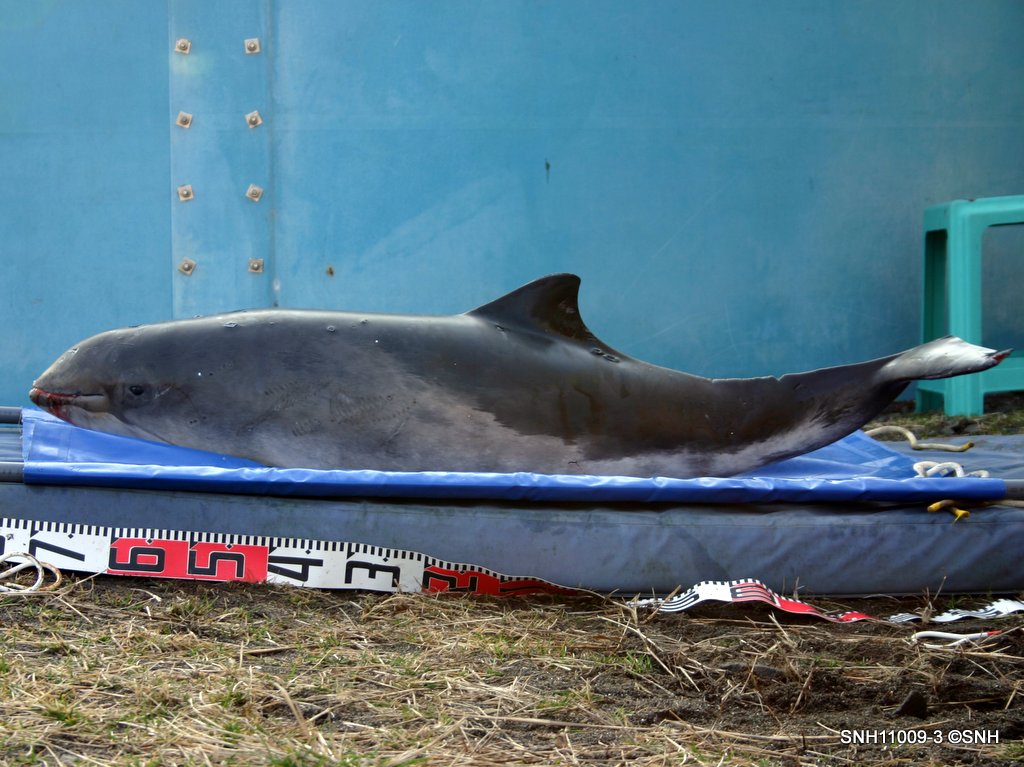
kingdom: Animalia
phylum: Chordata
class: Mammalia
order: Cetacea
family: Phocoenidae
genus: Phocoena
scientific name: Phocoena phocoena
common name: Harbour porpoise
